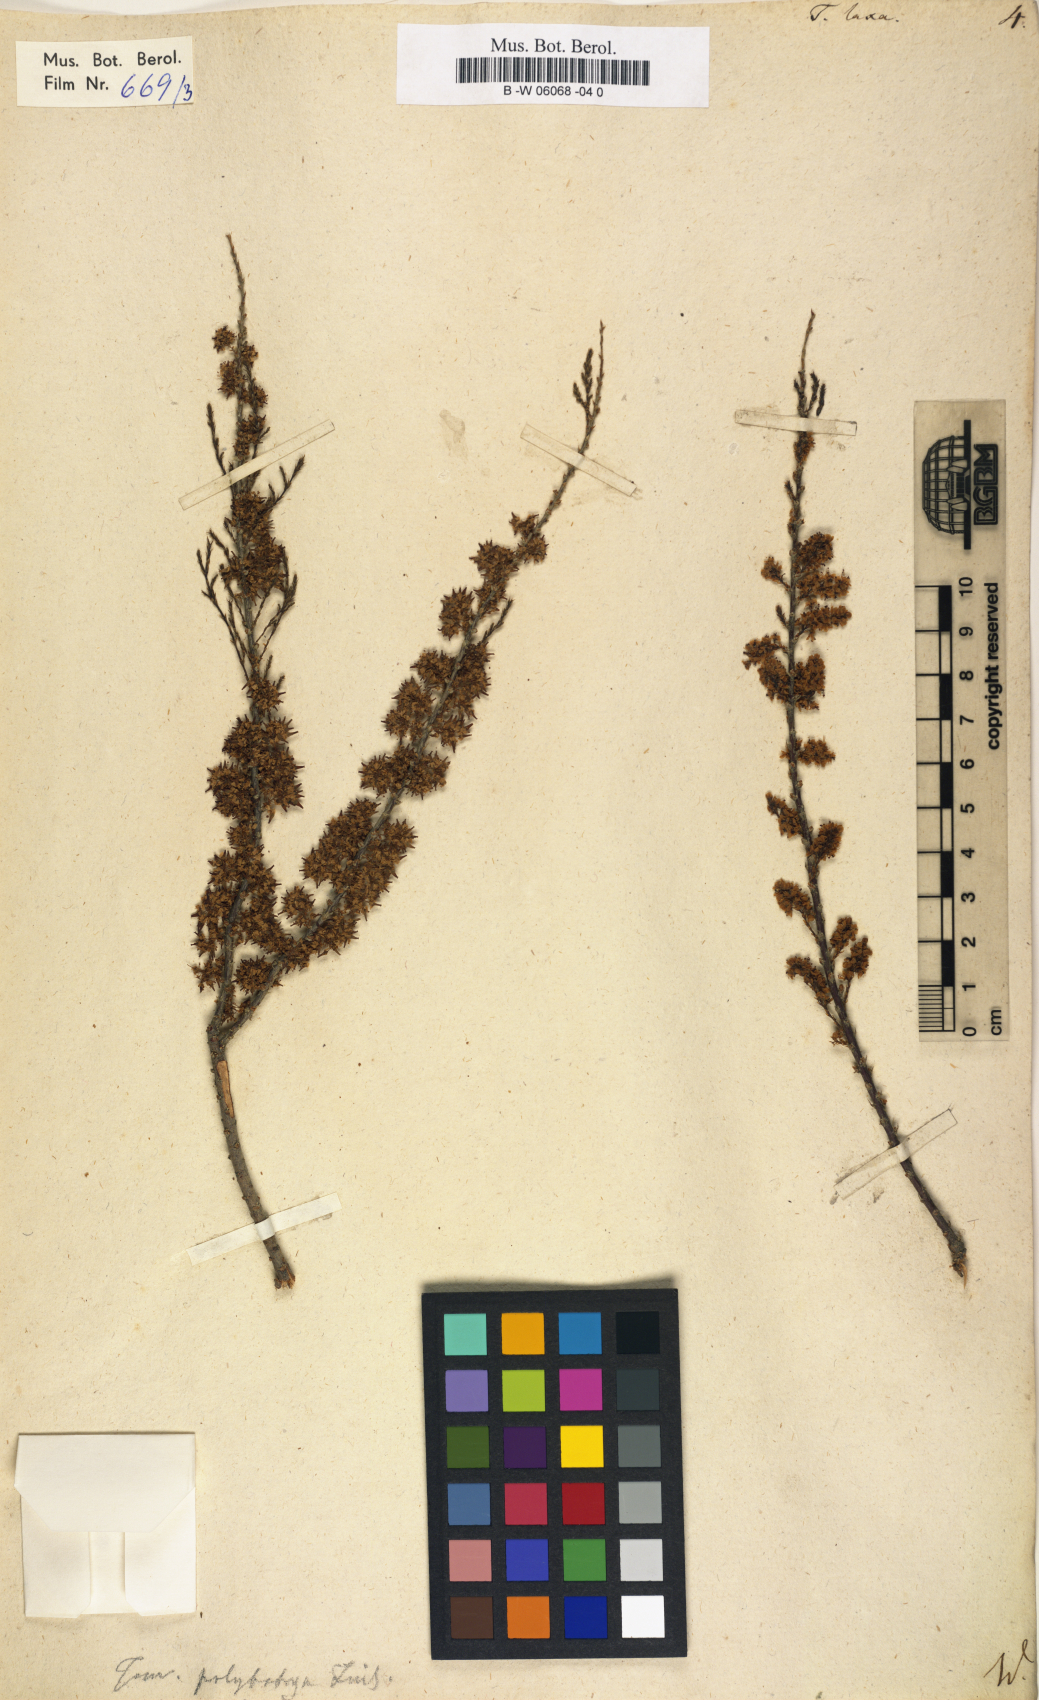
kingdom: Plantae
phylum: Tracheophyta
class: Magnoliopsida
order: Caryophyllales
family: Tamaricaceae
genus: Tamarix
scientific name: Tamarix laxa
